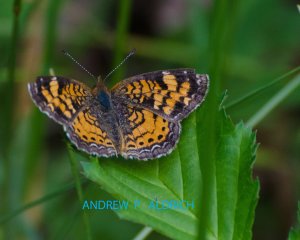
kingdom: Animalia
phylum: Arthropoda
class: Insecta
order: Lepidoptera
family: Nymphalidae
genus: Phyciodes
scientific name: Phyciodes tharos
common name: Pearl Crescent
